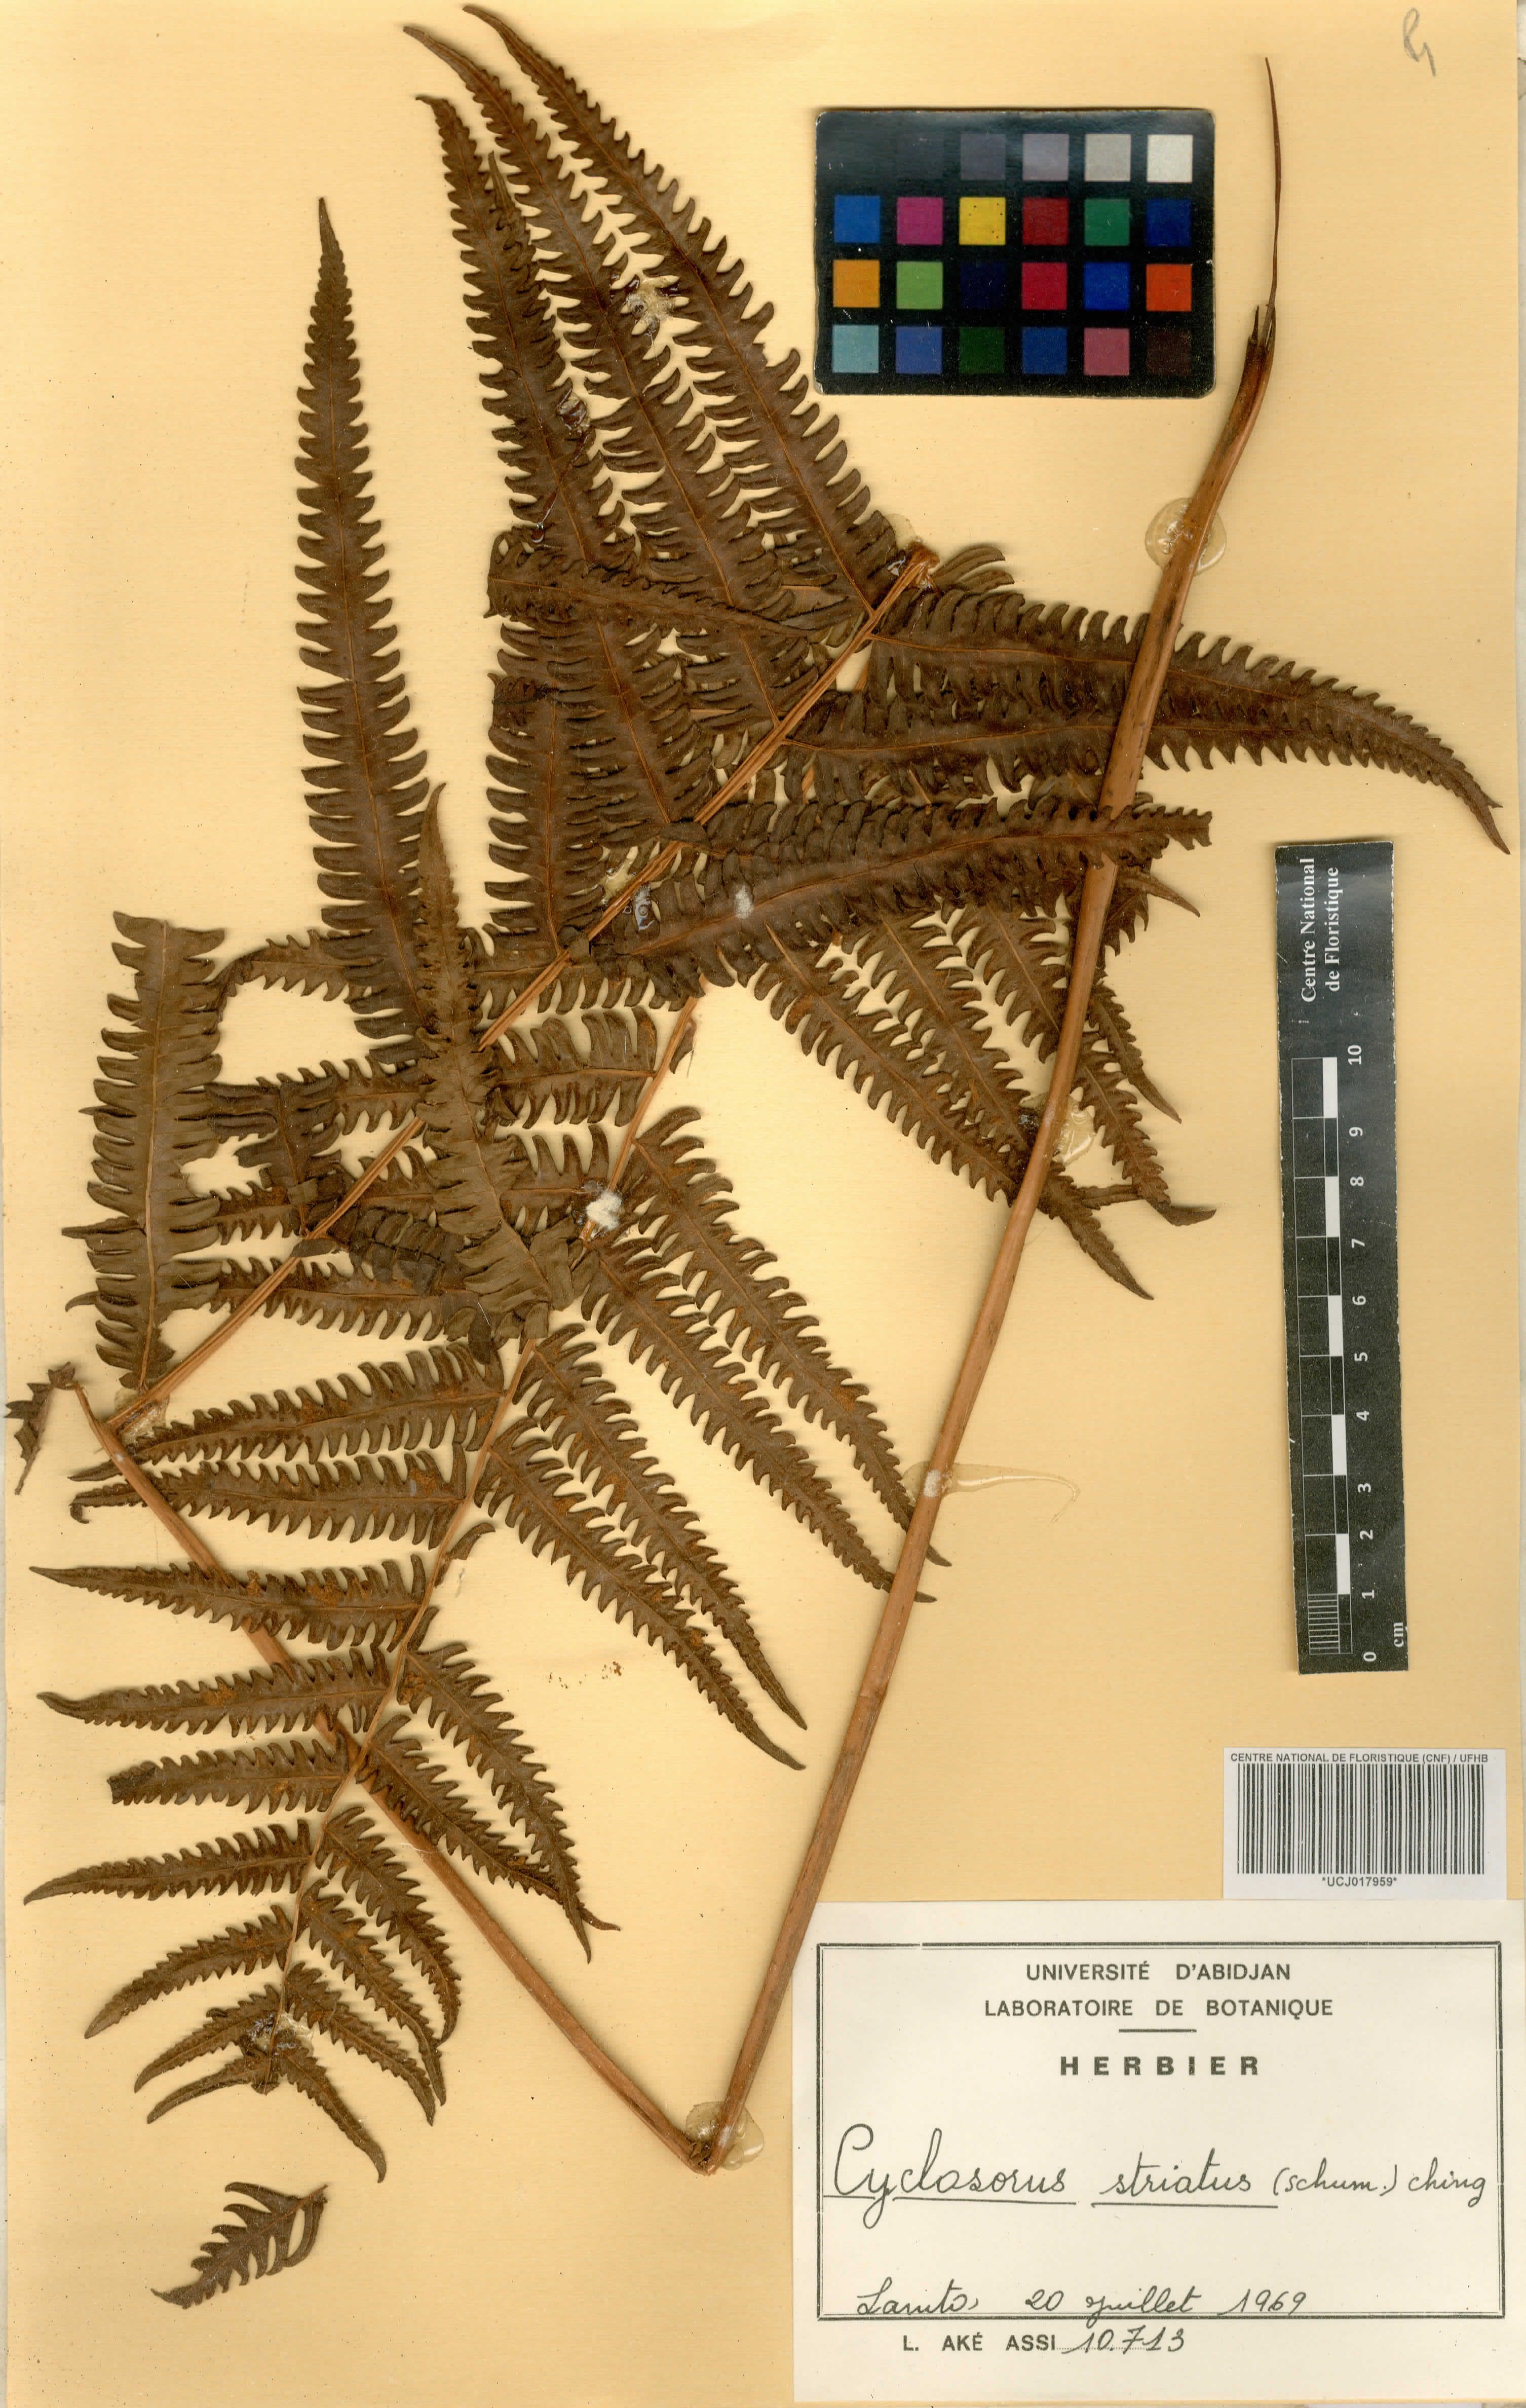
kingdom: Plantae
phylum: Tracheophyta
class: Polypodiopsida
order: Polypodiales
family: Thelypteridaceae
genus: Cyclosorus
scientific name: Cyclosorus striatus
